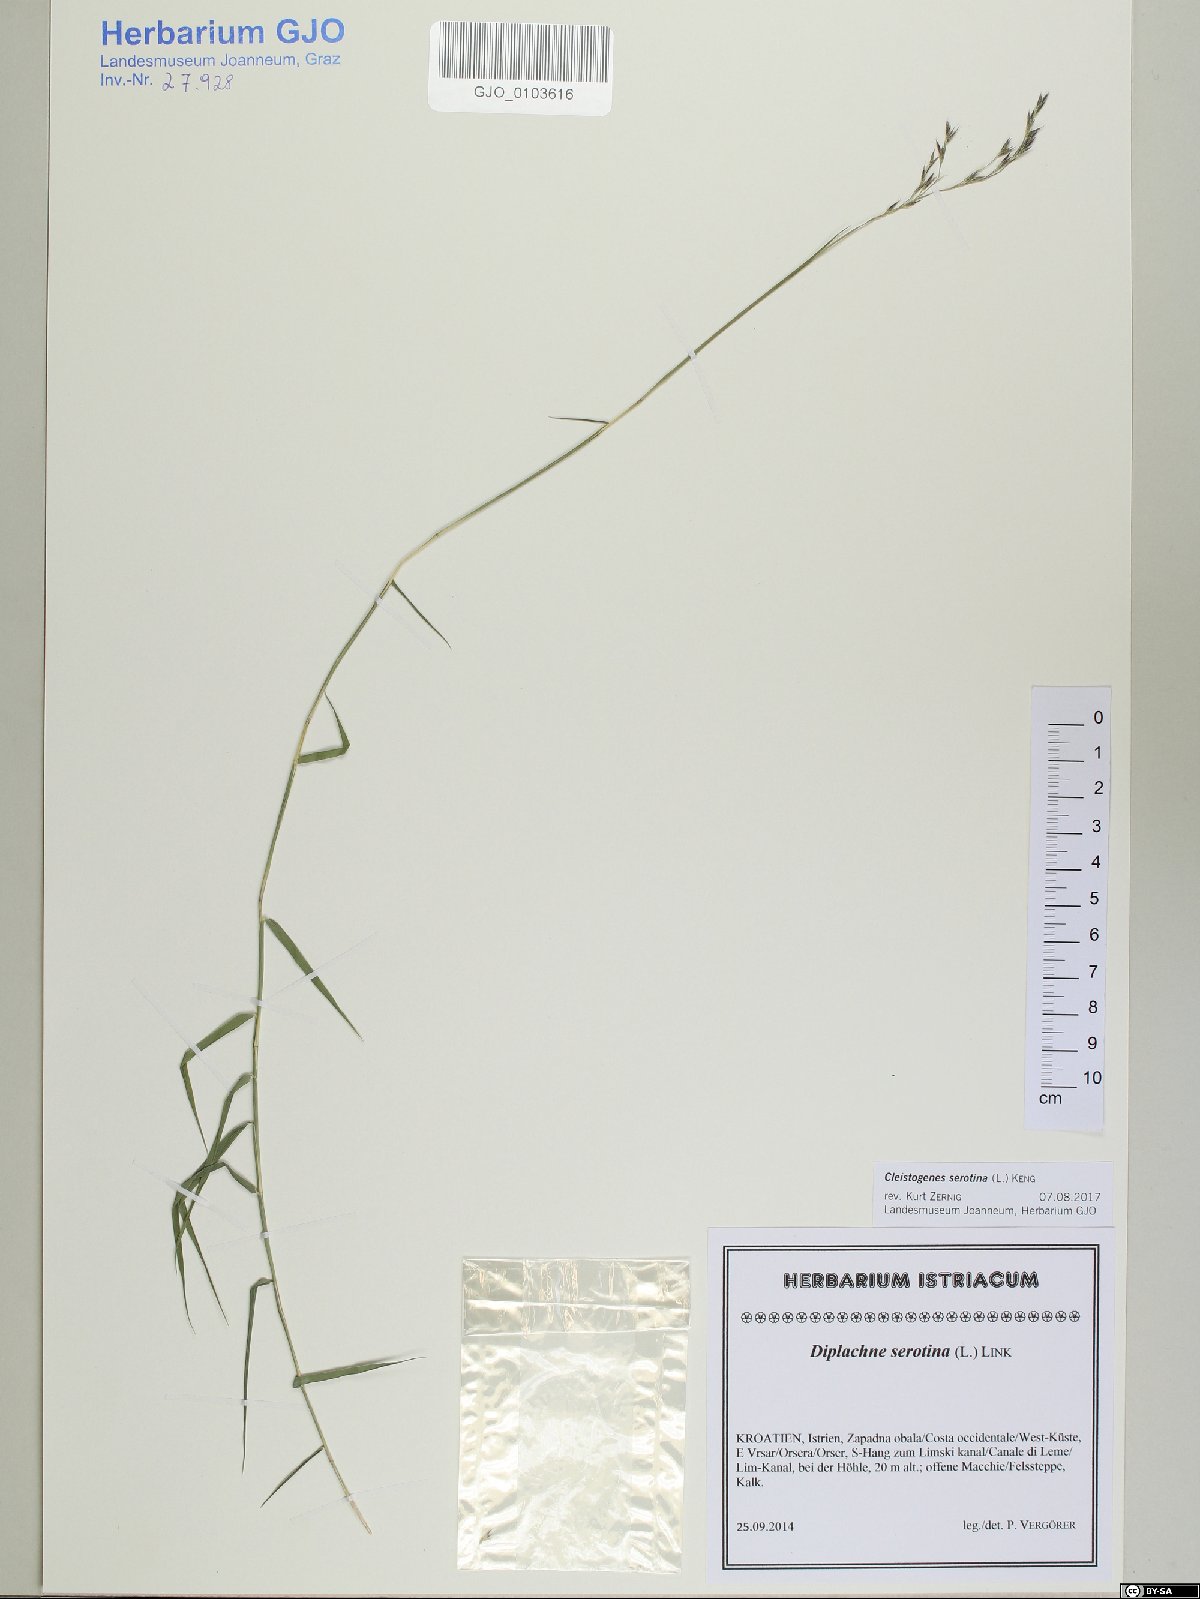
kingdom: Plantae
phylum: Tracheophyta
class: Liliopsida
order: Poales
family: Poaceae
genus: Cleistogenes
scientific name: Cleistogenes serotina
